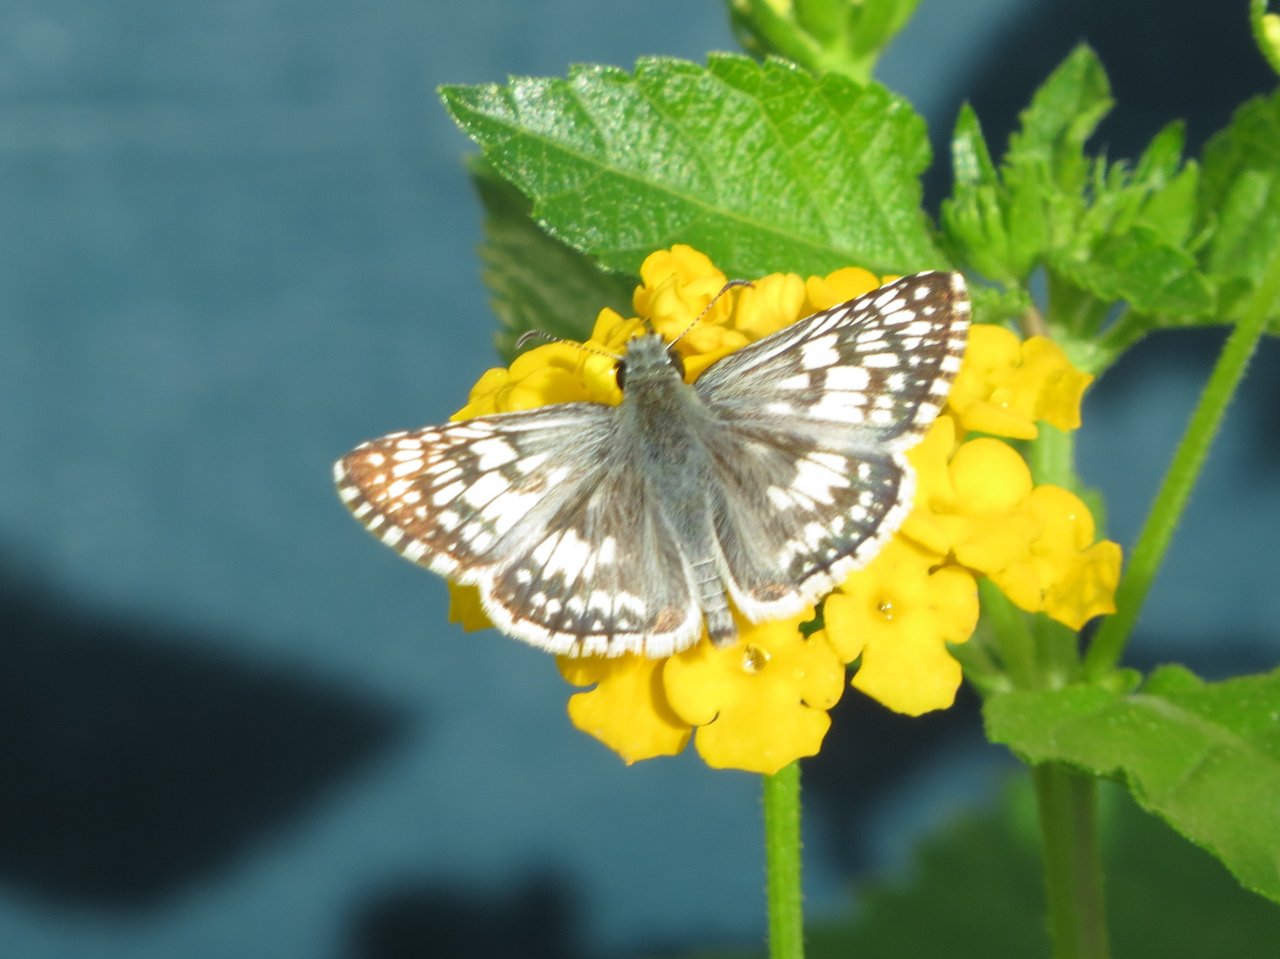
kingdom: Animalia
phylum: Arthropoda
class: Insecta
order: Lepidoptera
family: Hesperiidae
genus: Pyrgus
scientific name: Pyrgus communis
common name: White Checkered-Skipper
